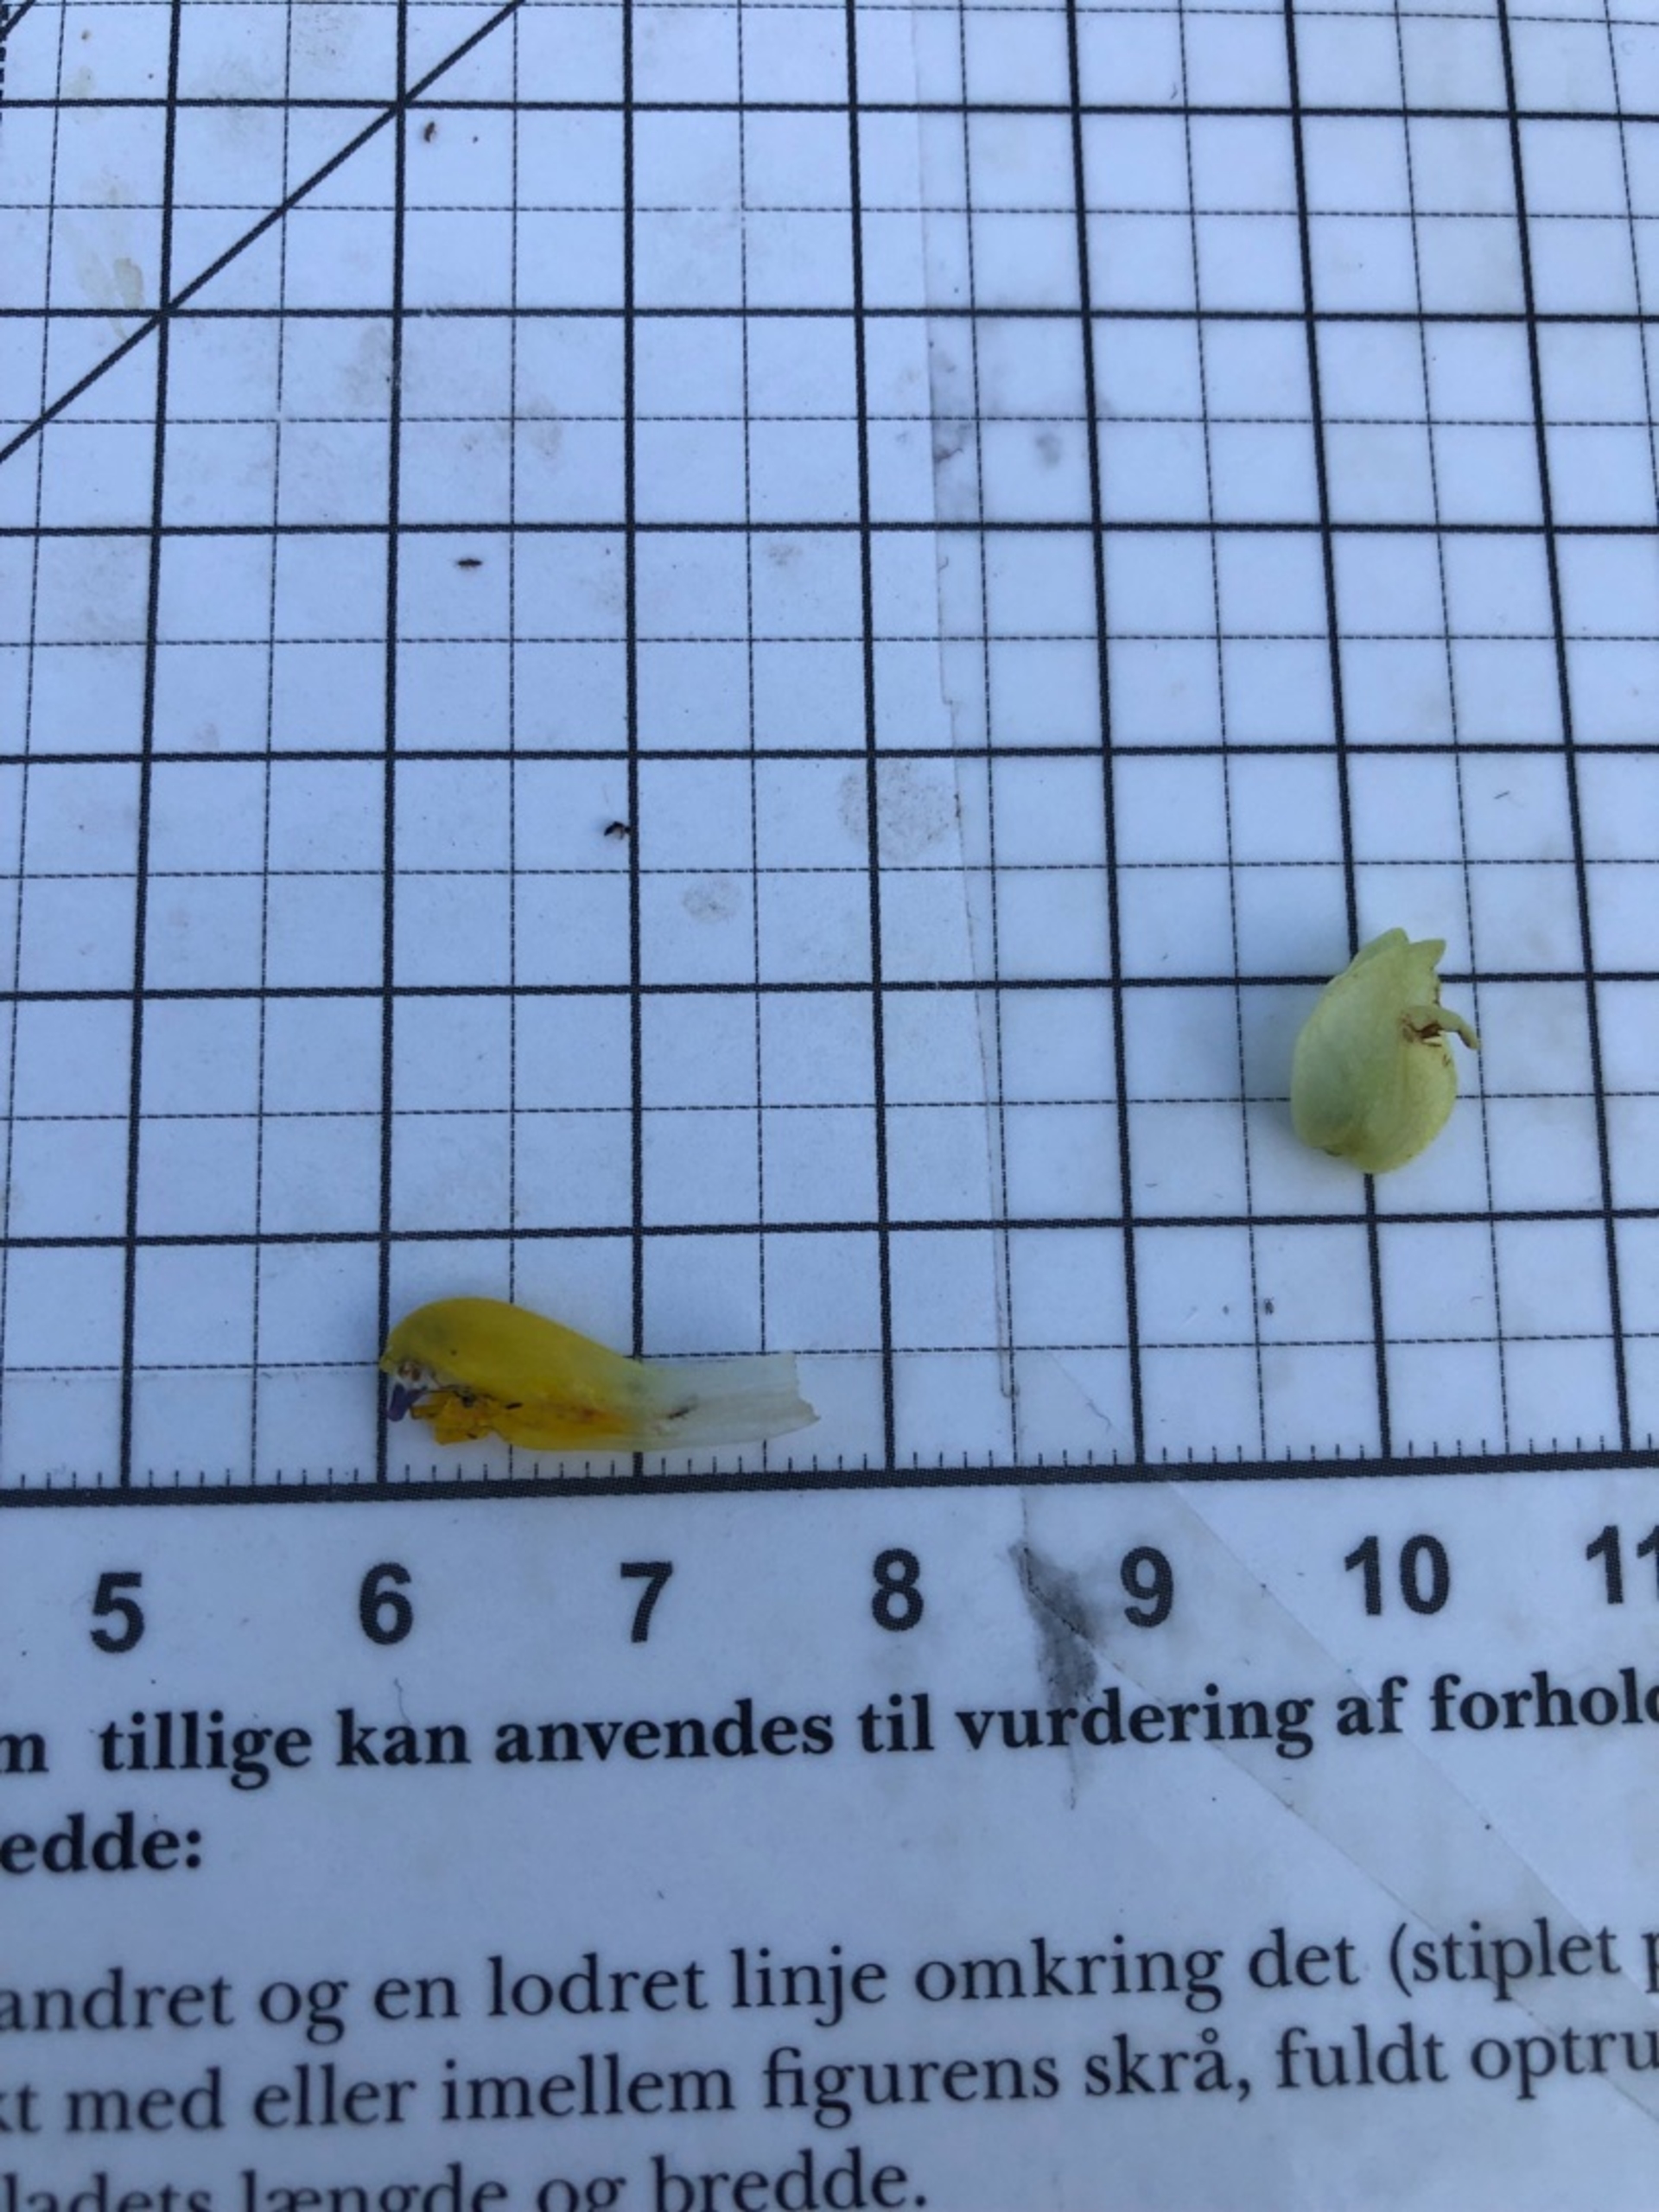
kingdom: Plantae
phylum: Tracheophyta
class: Magnoliopsida
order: Lamiales
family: Orobanchaceae
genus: Rhinanthus
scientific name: Rhinanthus
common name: Stor skjaller
